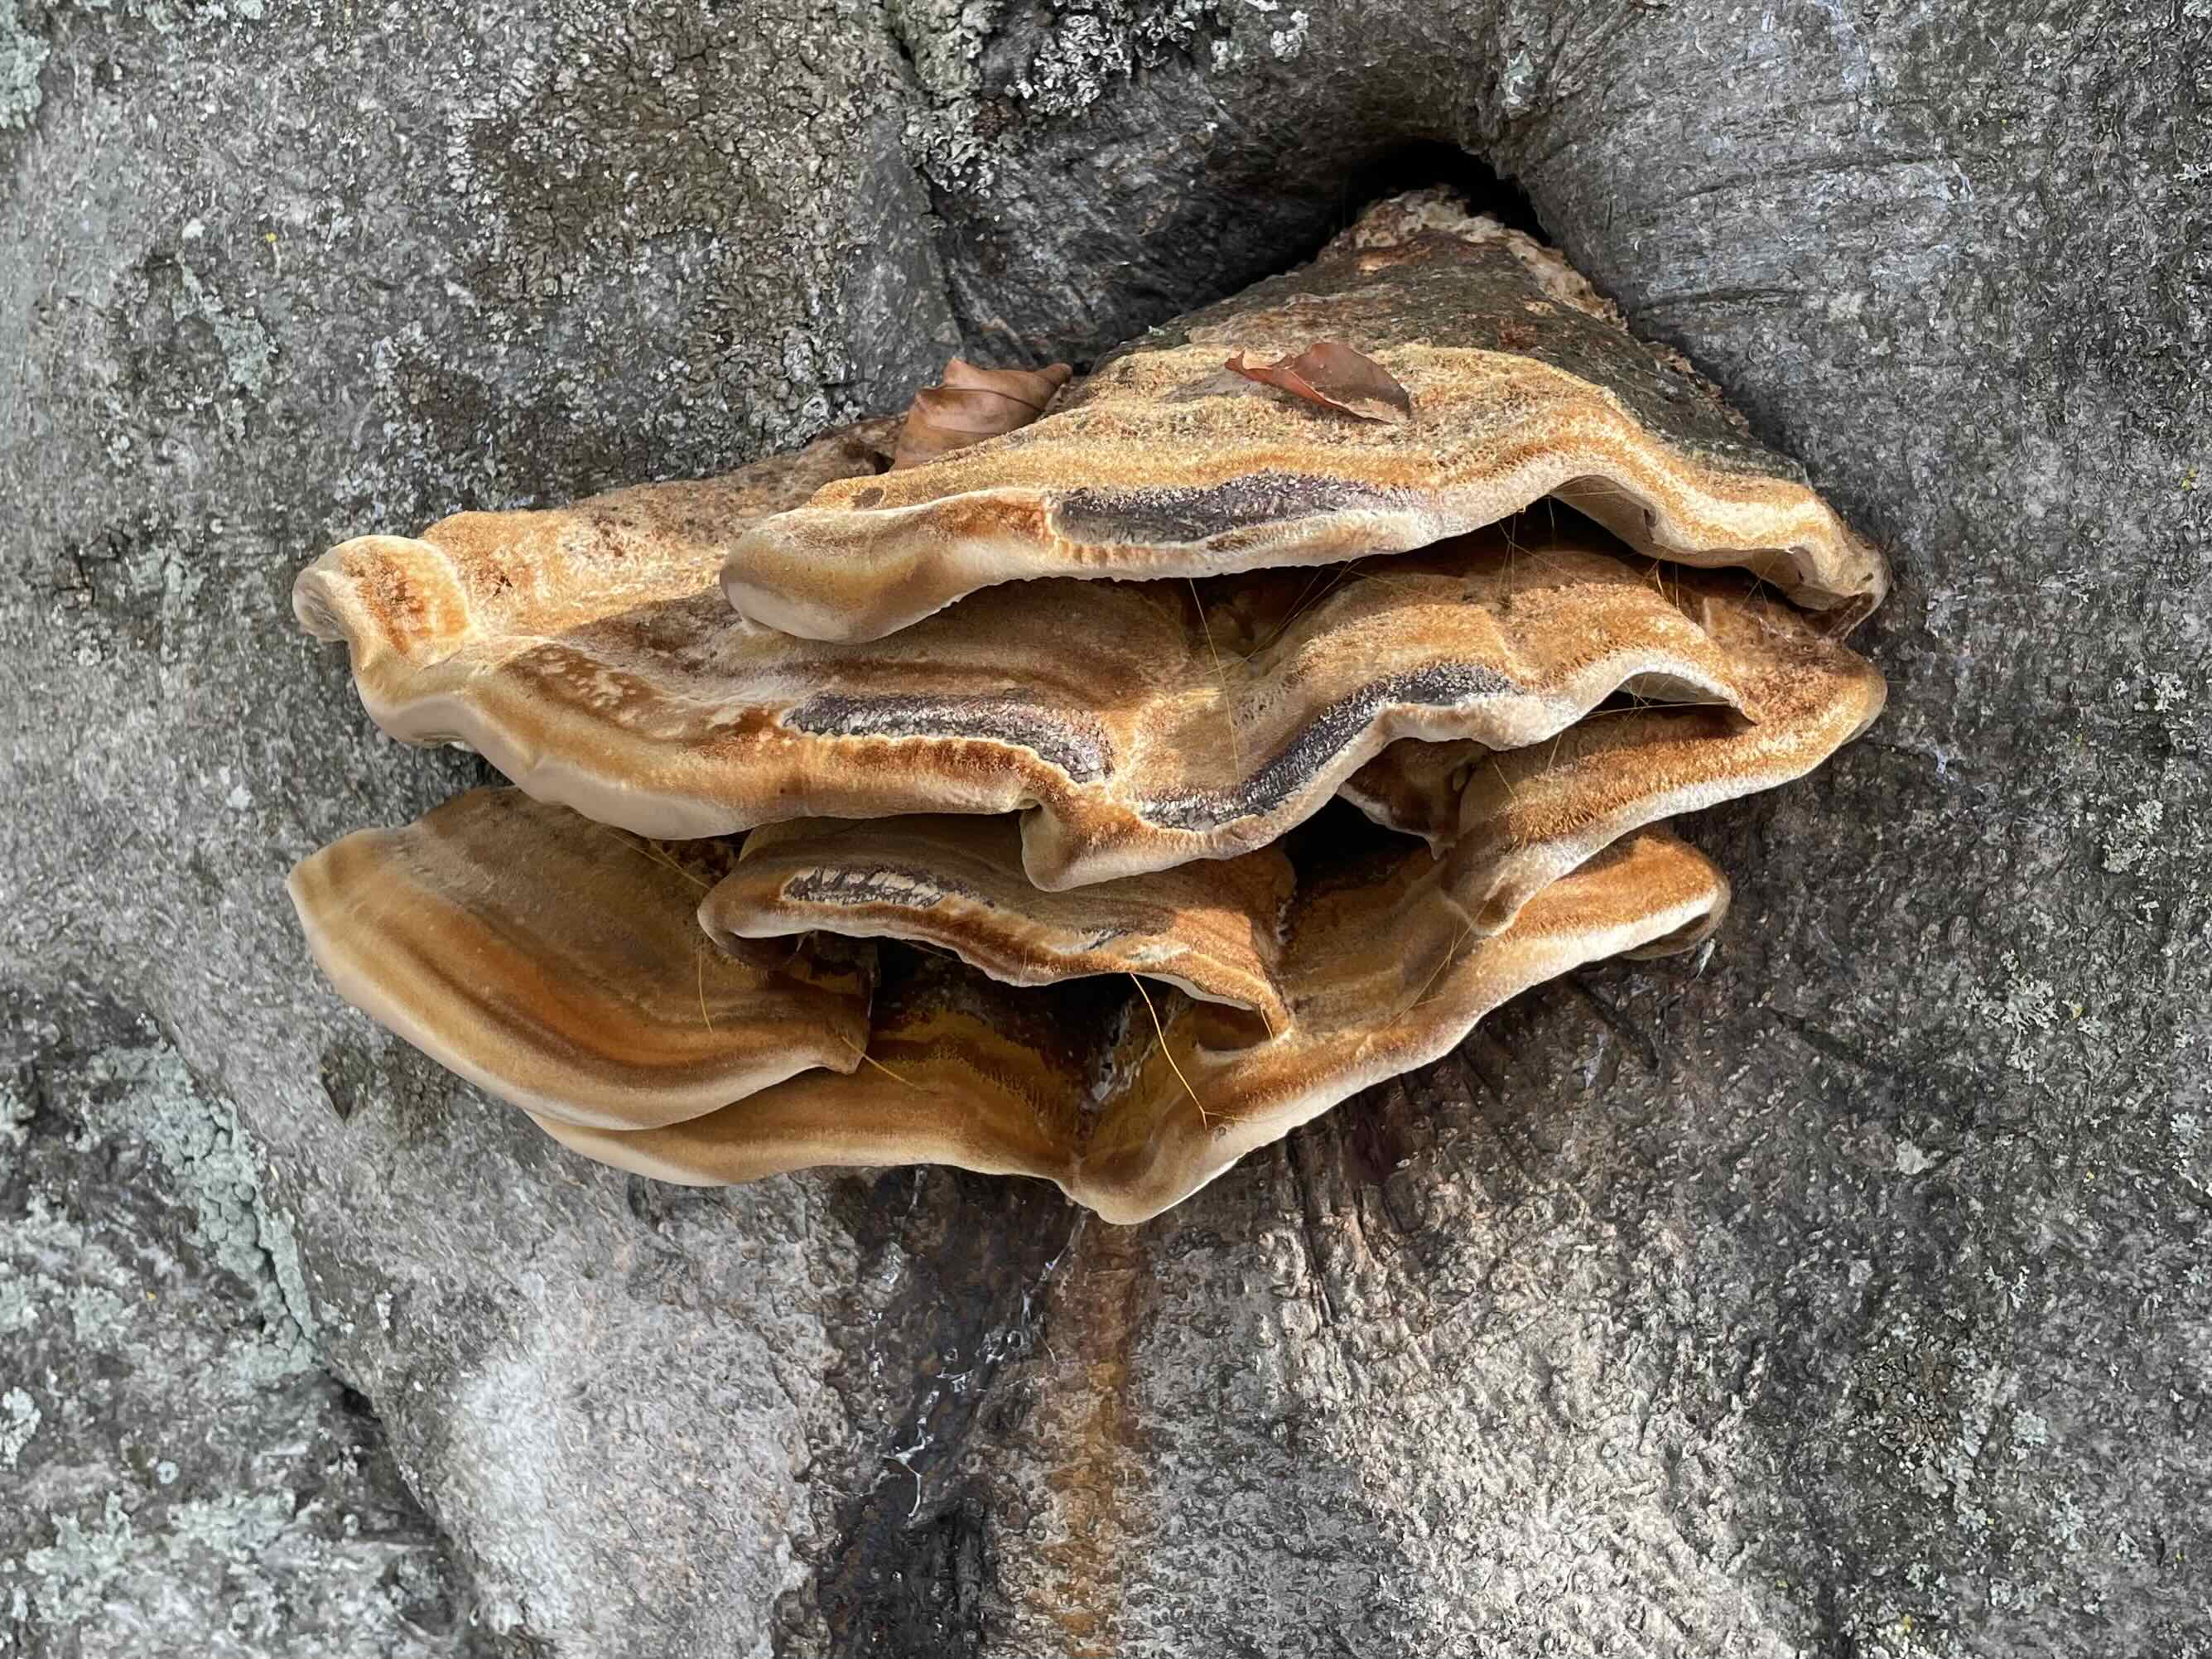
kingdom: Fungi
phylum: Basidiomycota
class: Agaricomycetes
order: Hymenochaetales
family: Hymenochaetaceae
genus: Inonotus
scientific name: Inonotus cuticularis
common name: kroghåret spejlporesvamp
